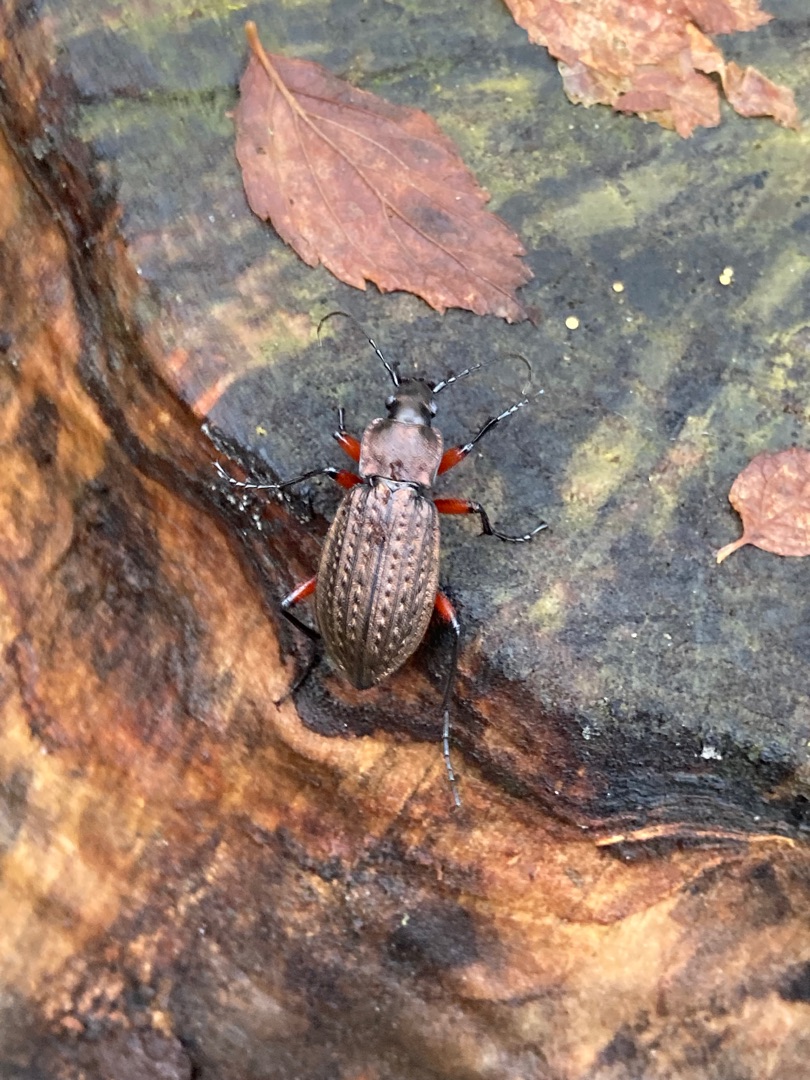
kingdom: Animalia
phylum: Arthropoda
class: Insecta
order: Coleoptera
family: Carabidae
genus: Carabus
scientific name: Carabus granulatus
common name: Kornet løber
